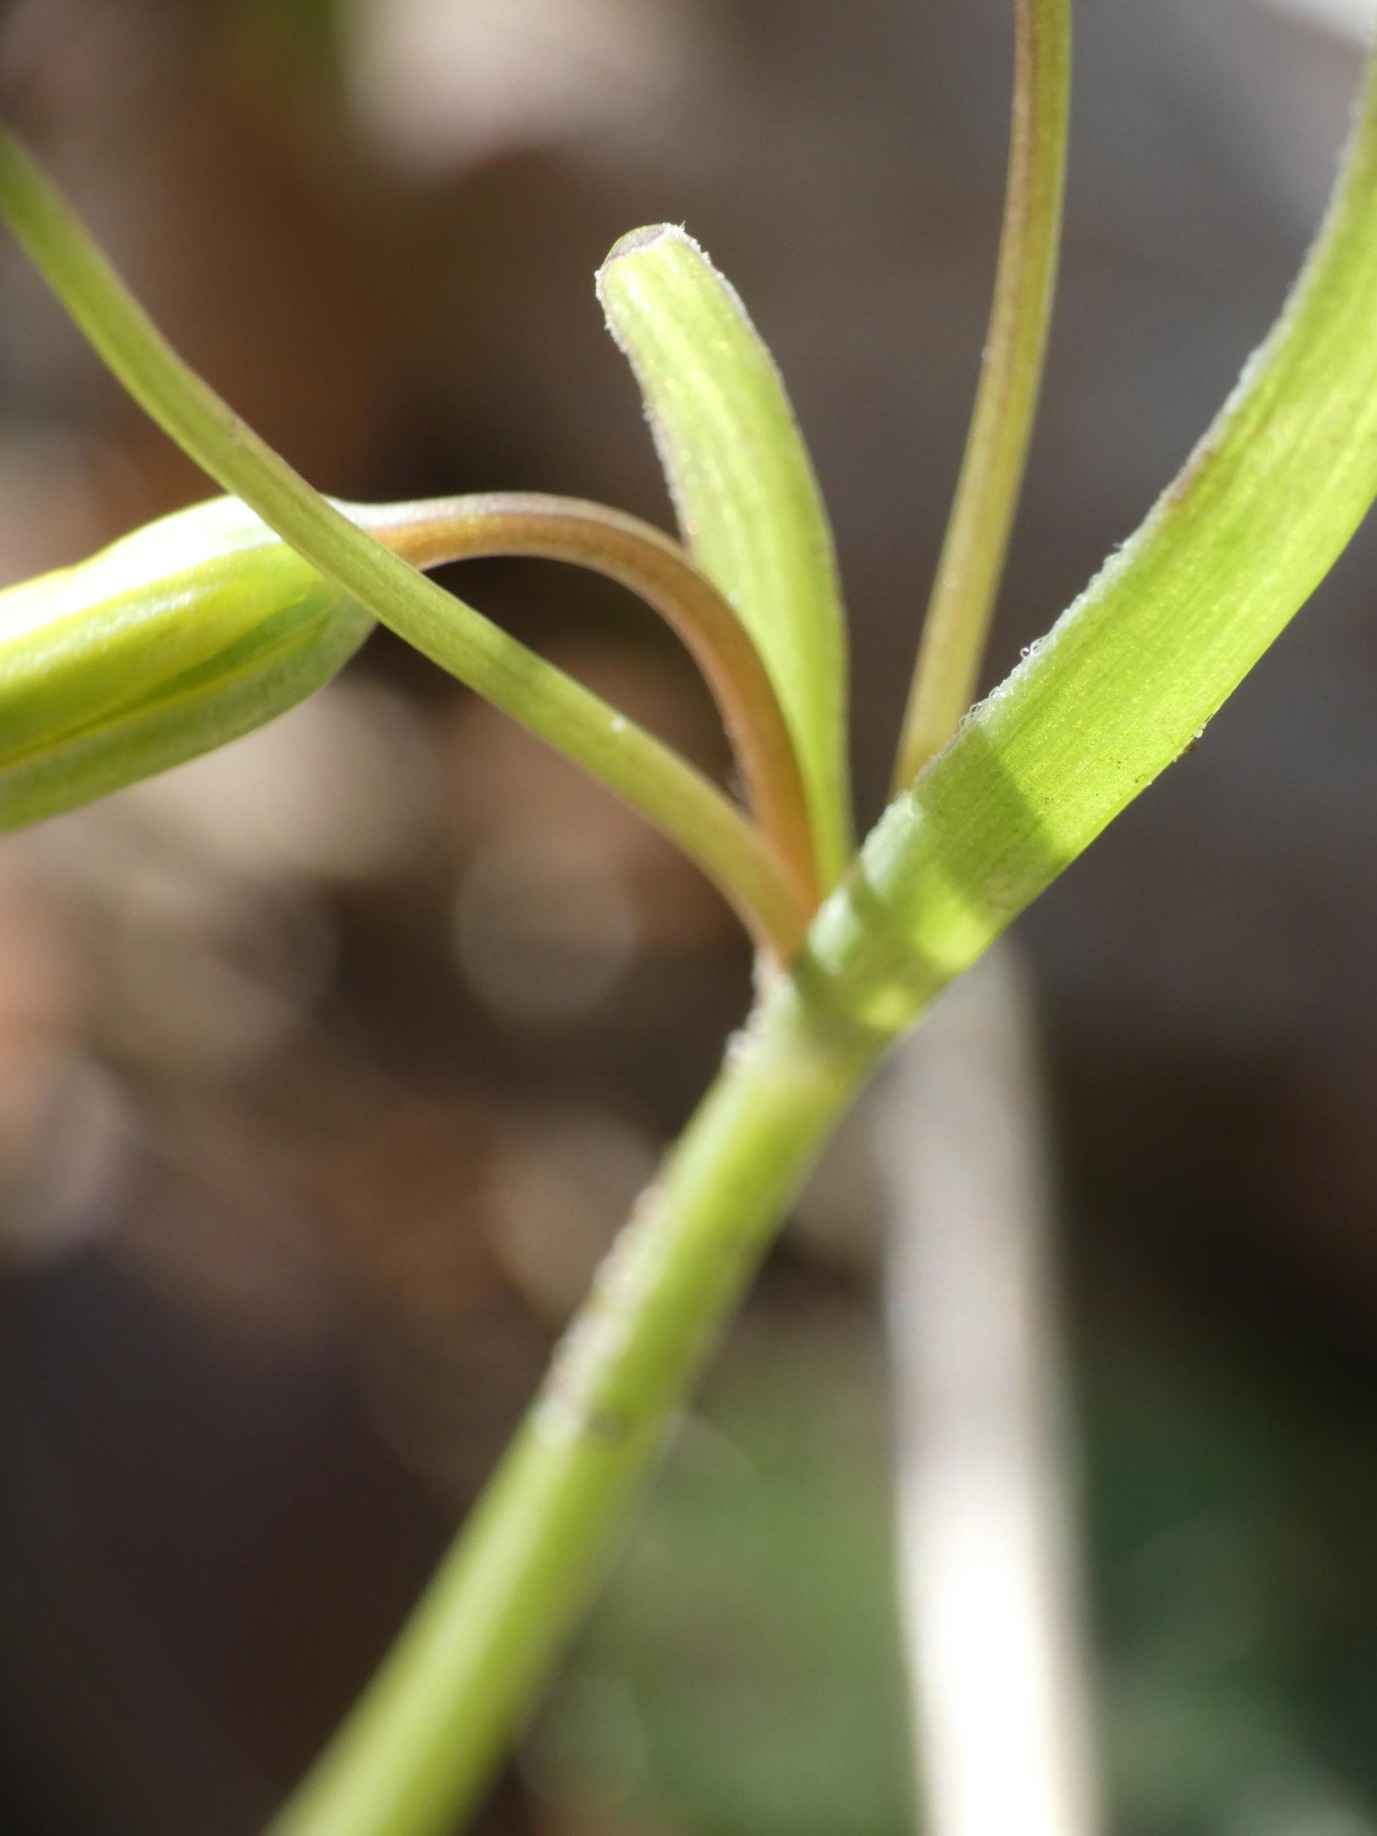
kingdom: Plantae
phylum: Tracheophyta
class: Liliopsida
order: Liliales
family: Liliaceae
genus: Gagea
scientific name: Gagea lutea
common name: Almindelig guldstjerne
